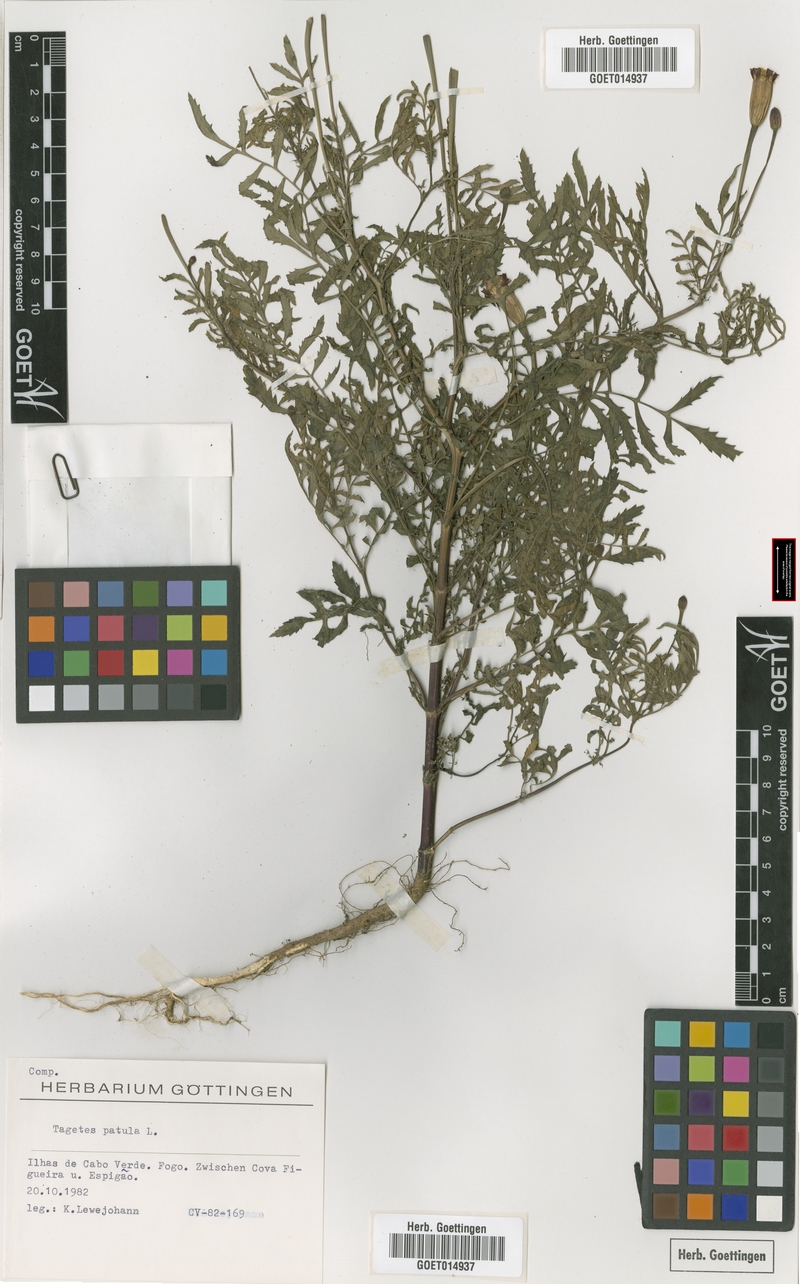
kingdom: Plantae
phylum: Tracheophyta
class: Magnoliopsida
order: Asterales
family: Asteraceae
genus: Tagetes
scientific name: Tagetes erecta
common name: African marigold
